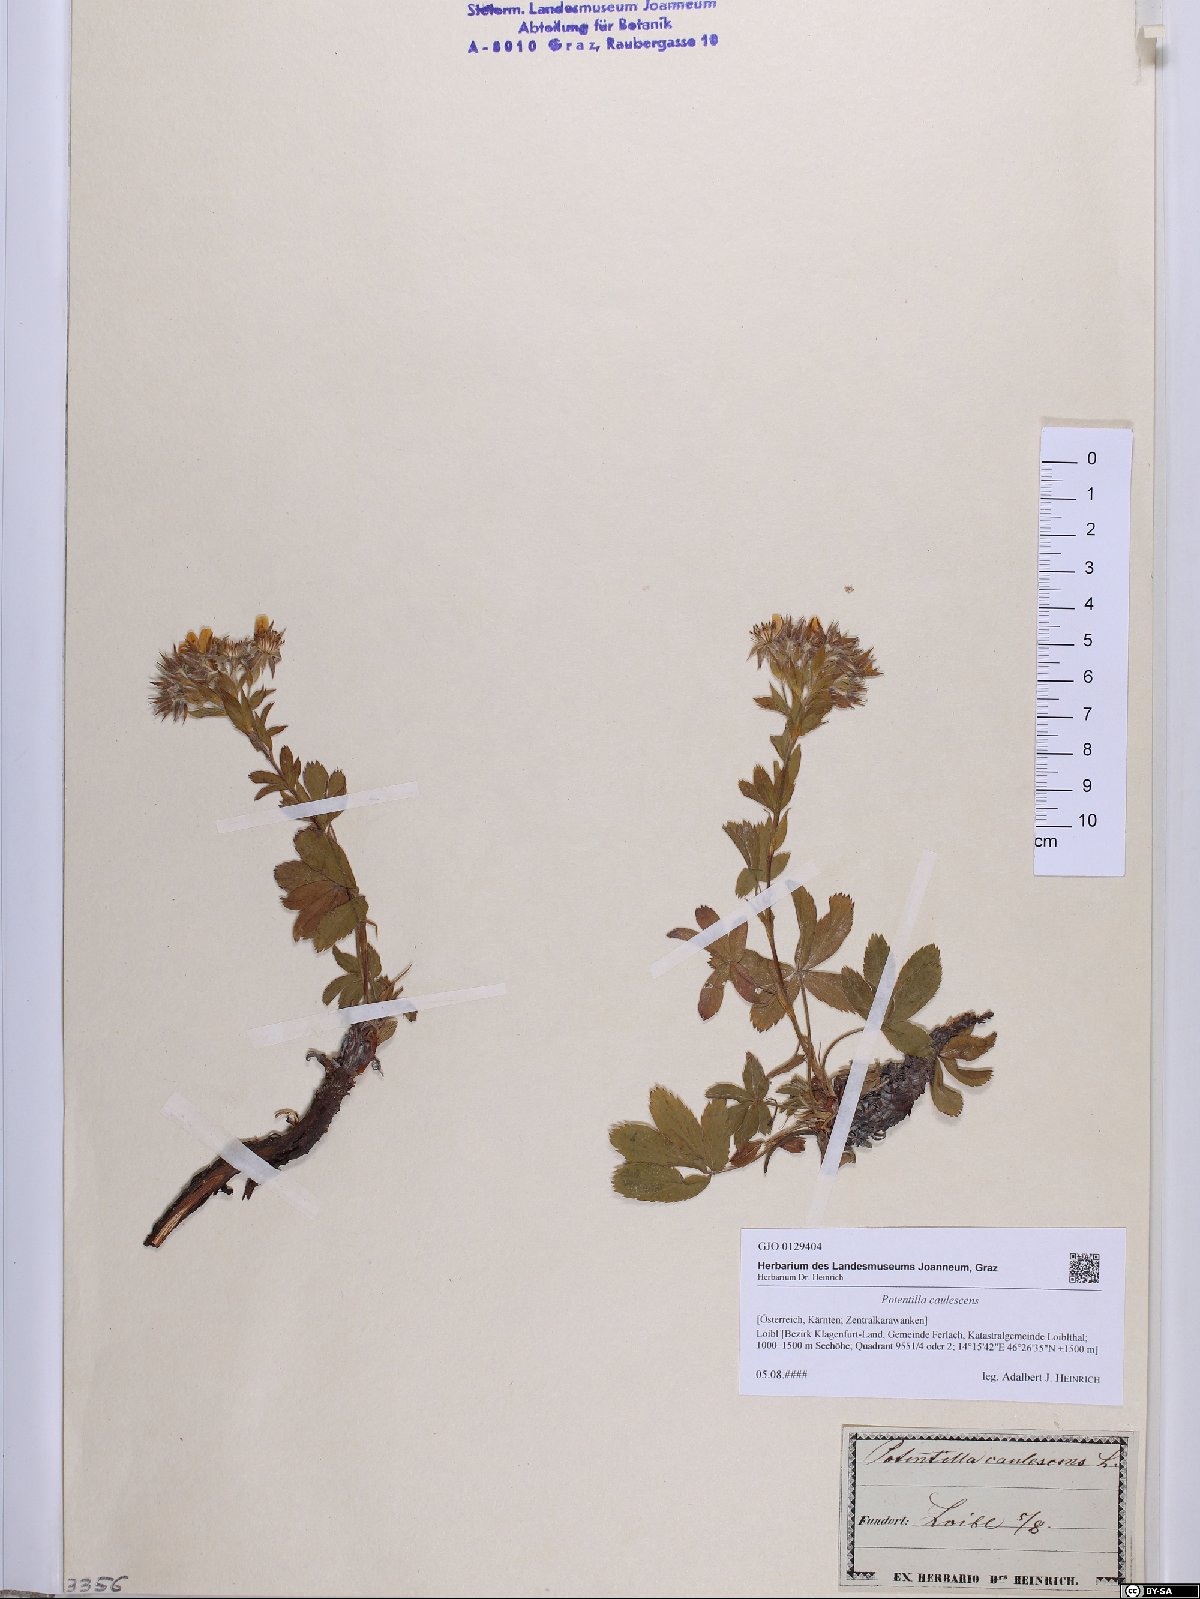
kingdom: Plantae
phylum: Tracheophyta
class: Magnoliopsida
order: Rosales
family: Rosaceae
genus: Potentilla
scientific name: Potentilla caulescens
